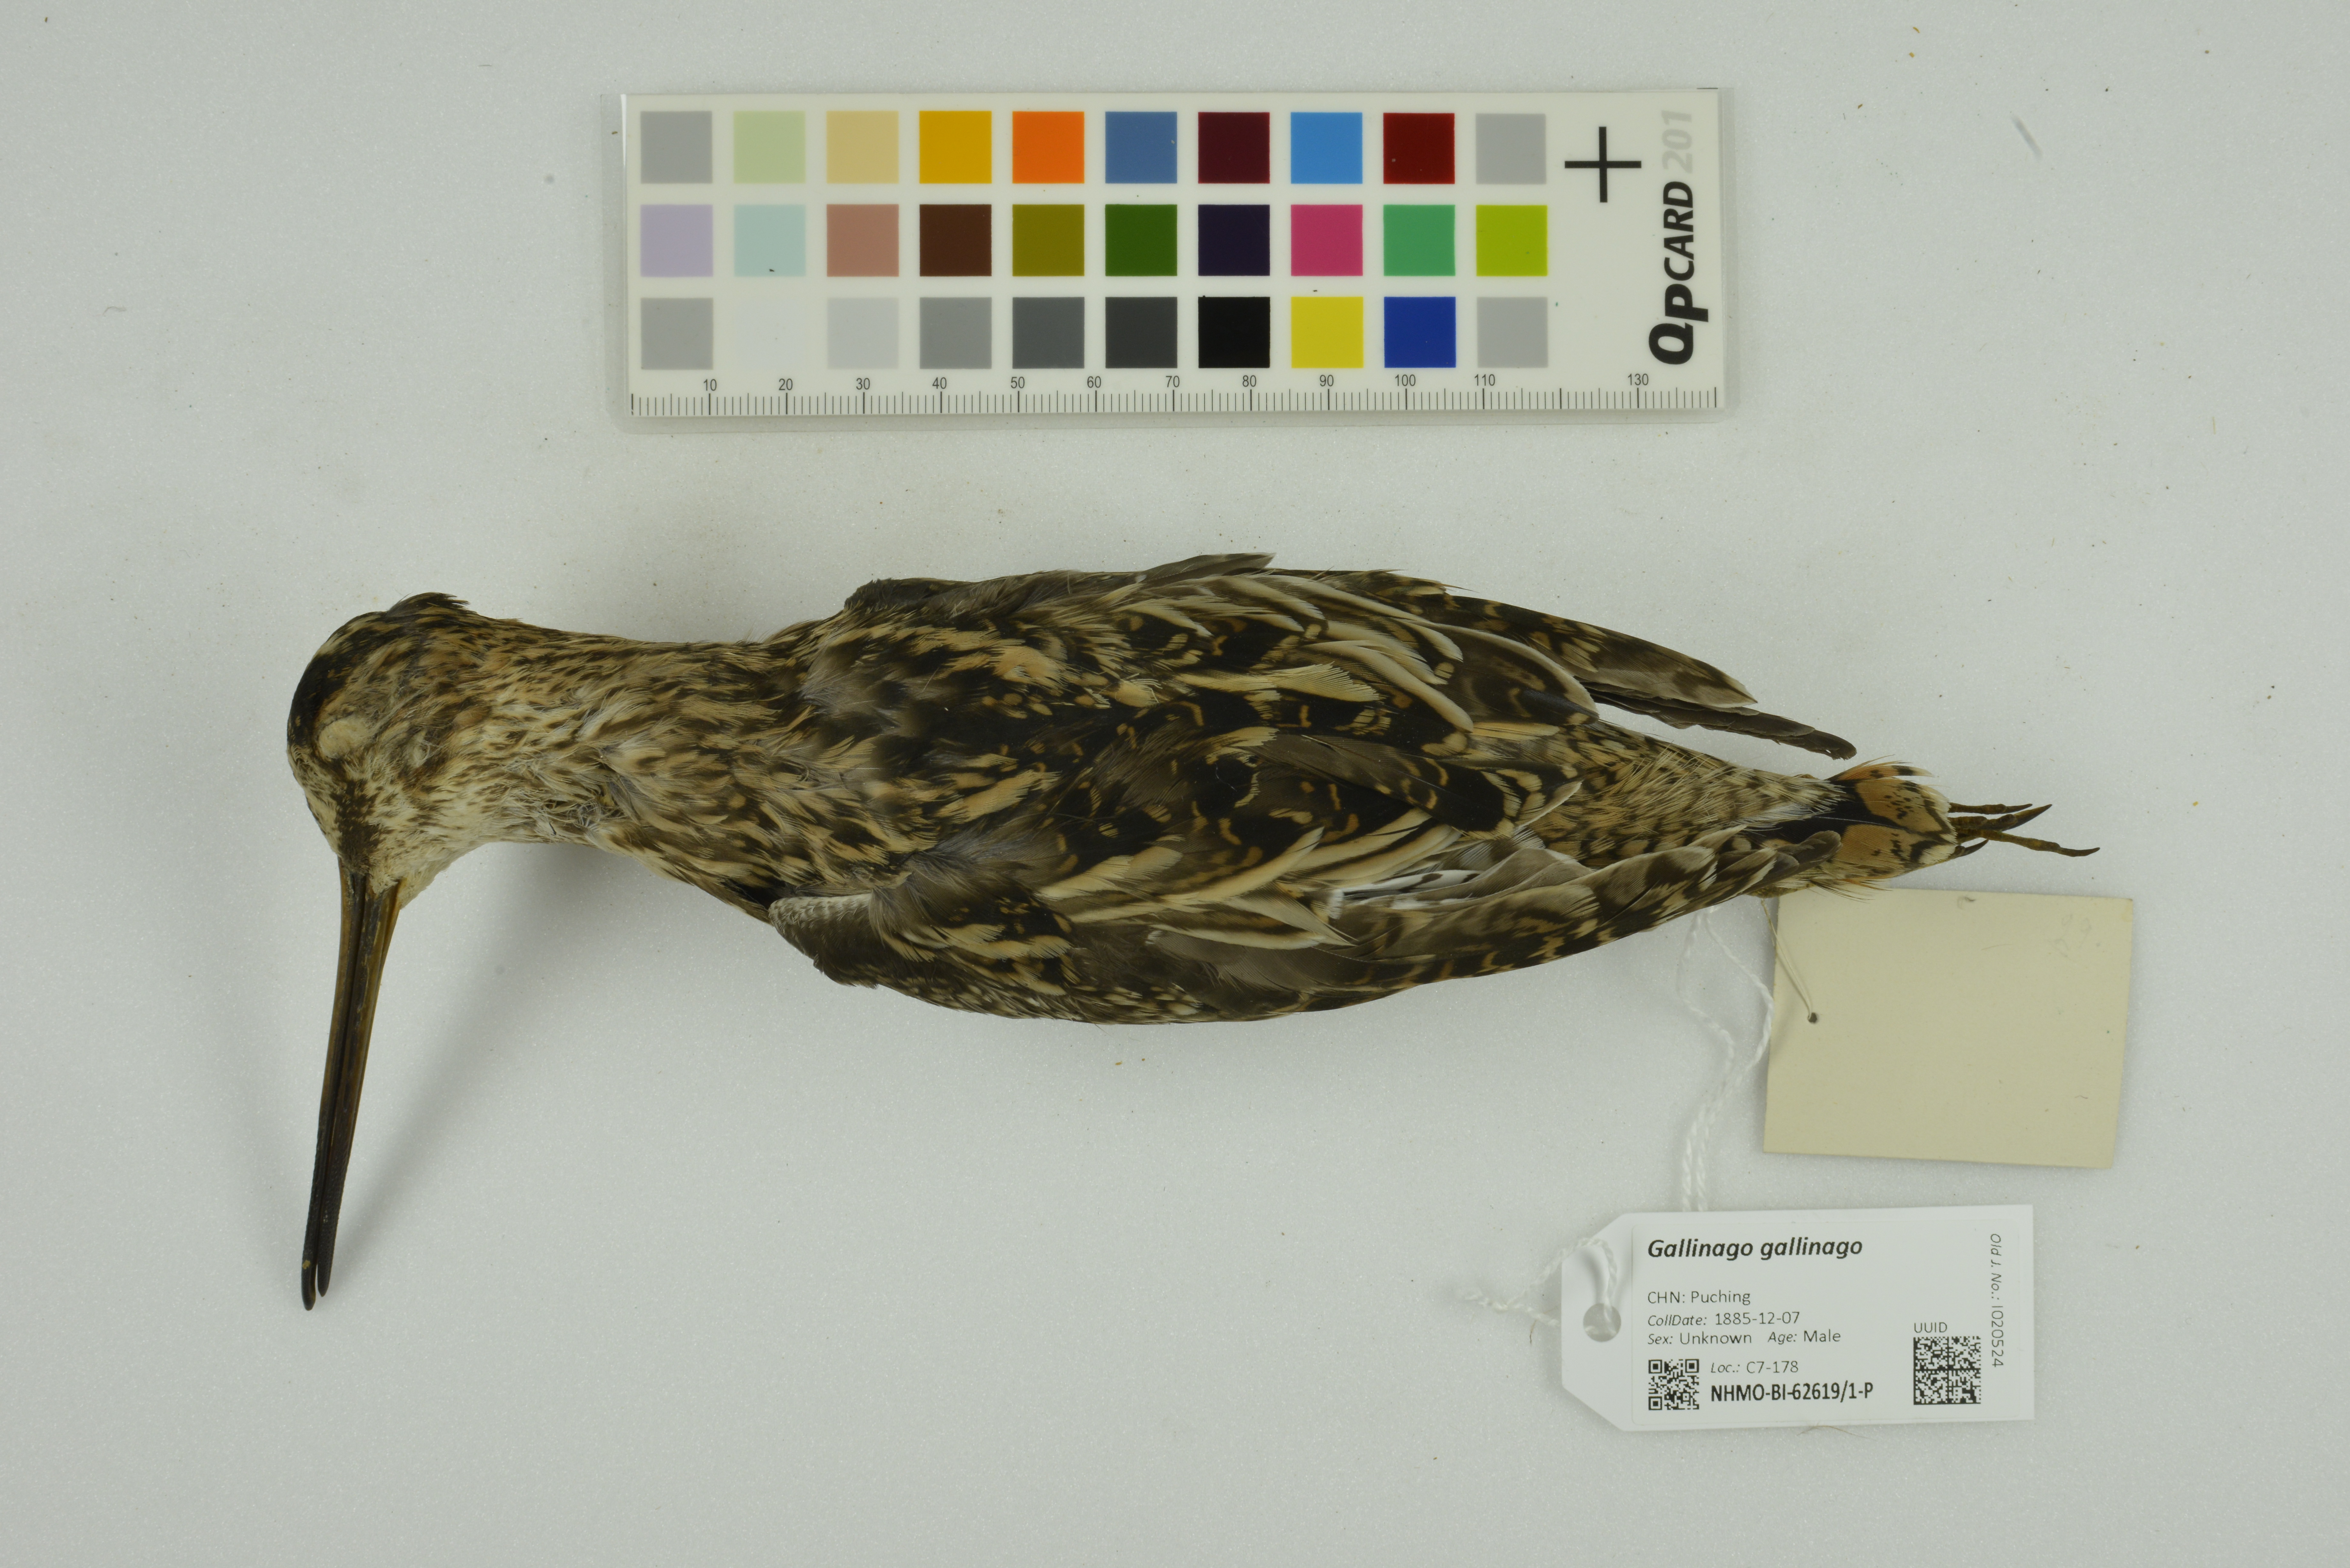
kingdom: Animalia
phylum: Chordata
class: Aves
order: Charadriiformes
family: Scolopacidae
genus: Gallinago
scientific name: Gallinago gallinago
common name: Common snipe
